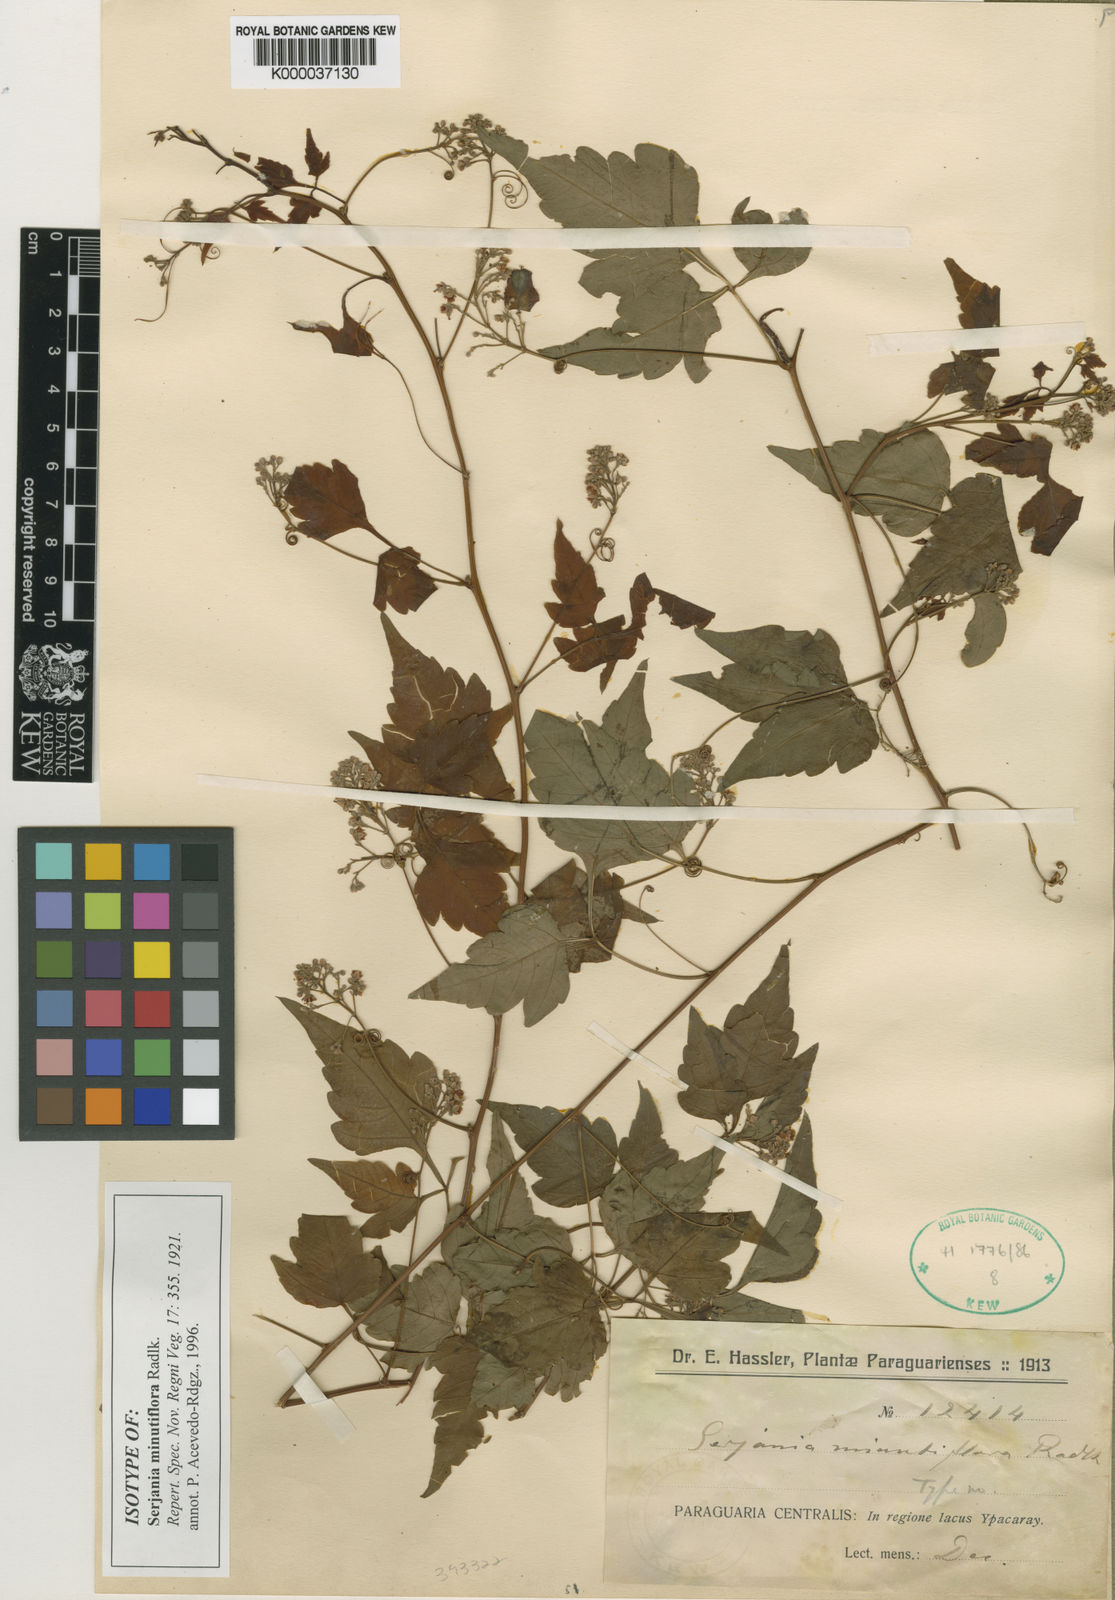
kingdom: Plantae
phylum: Tracheophyta
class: Magnoliopsida
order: Sapindales
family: Sapindaceae
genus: Serjania
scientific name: Serjania minutiflora
